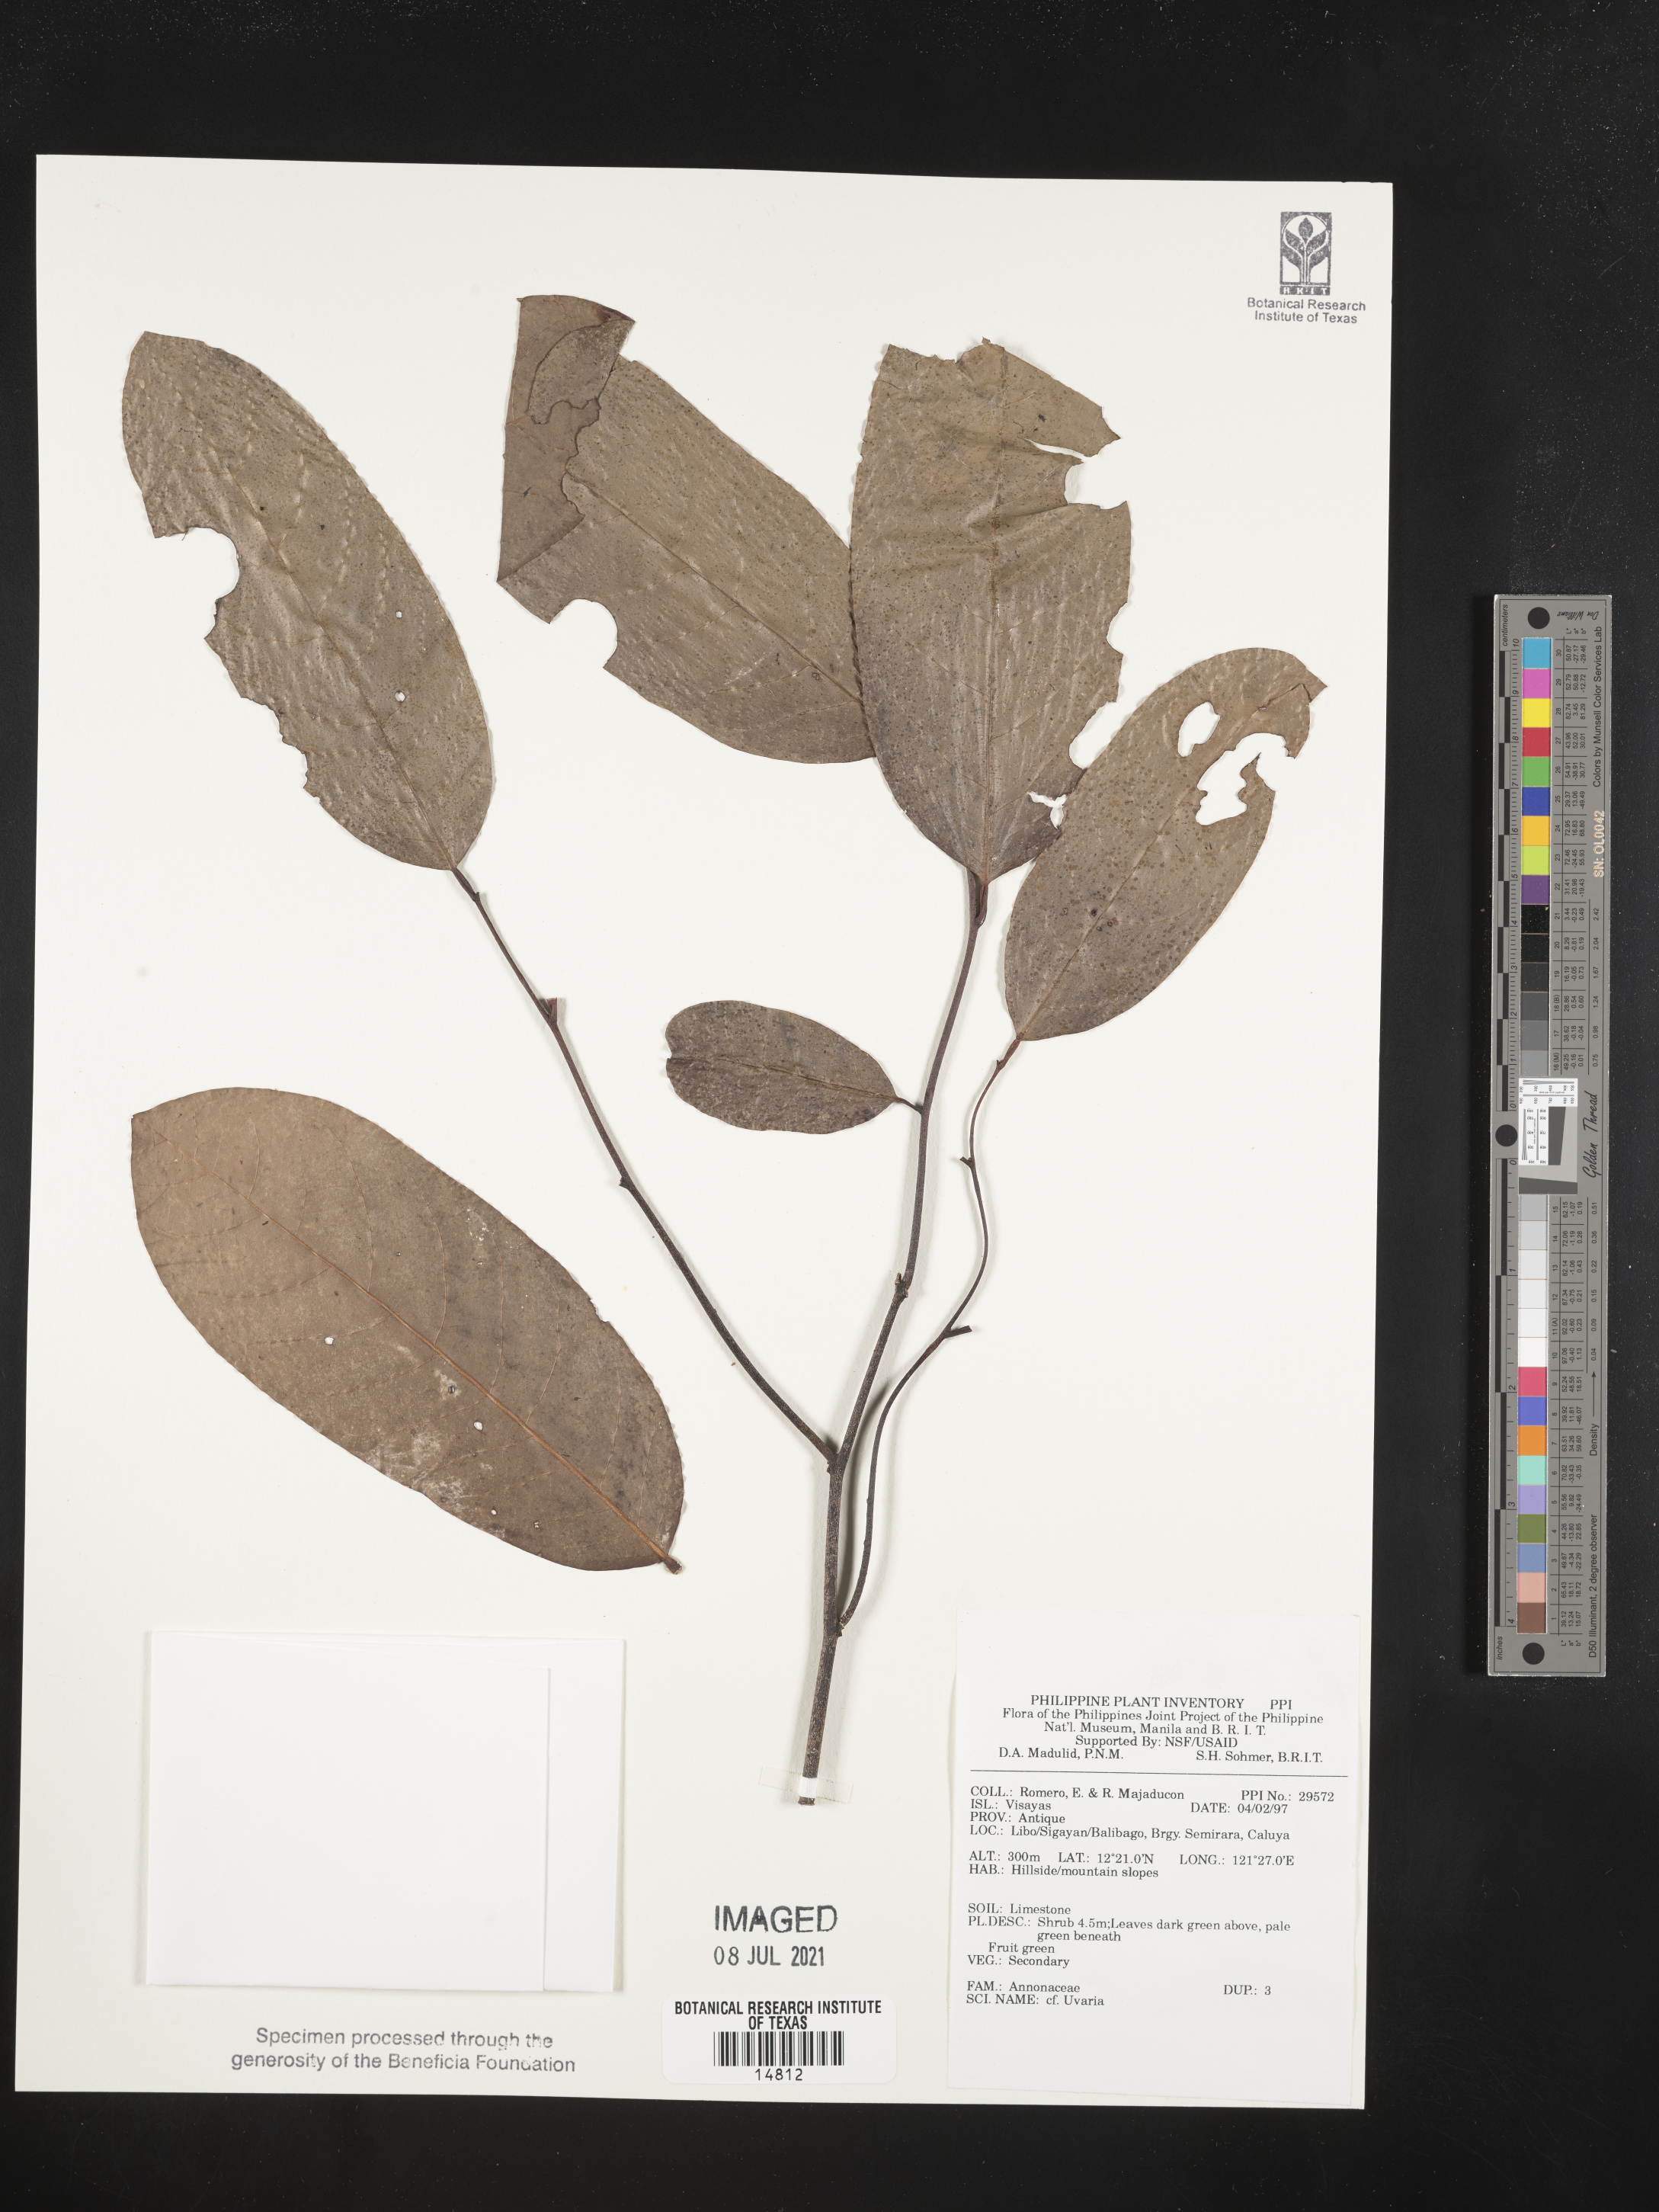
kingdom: Plantae
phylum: Tracheophyta
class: Magnoliopsida
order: Magnoliales
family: Annonaceae
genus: Uvaria
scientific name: Uvaria
